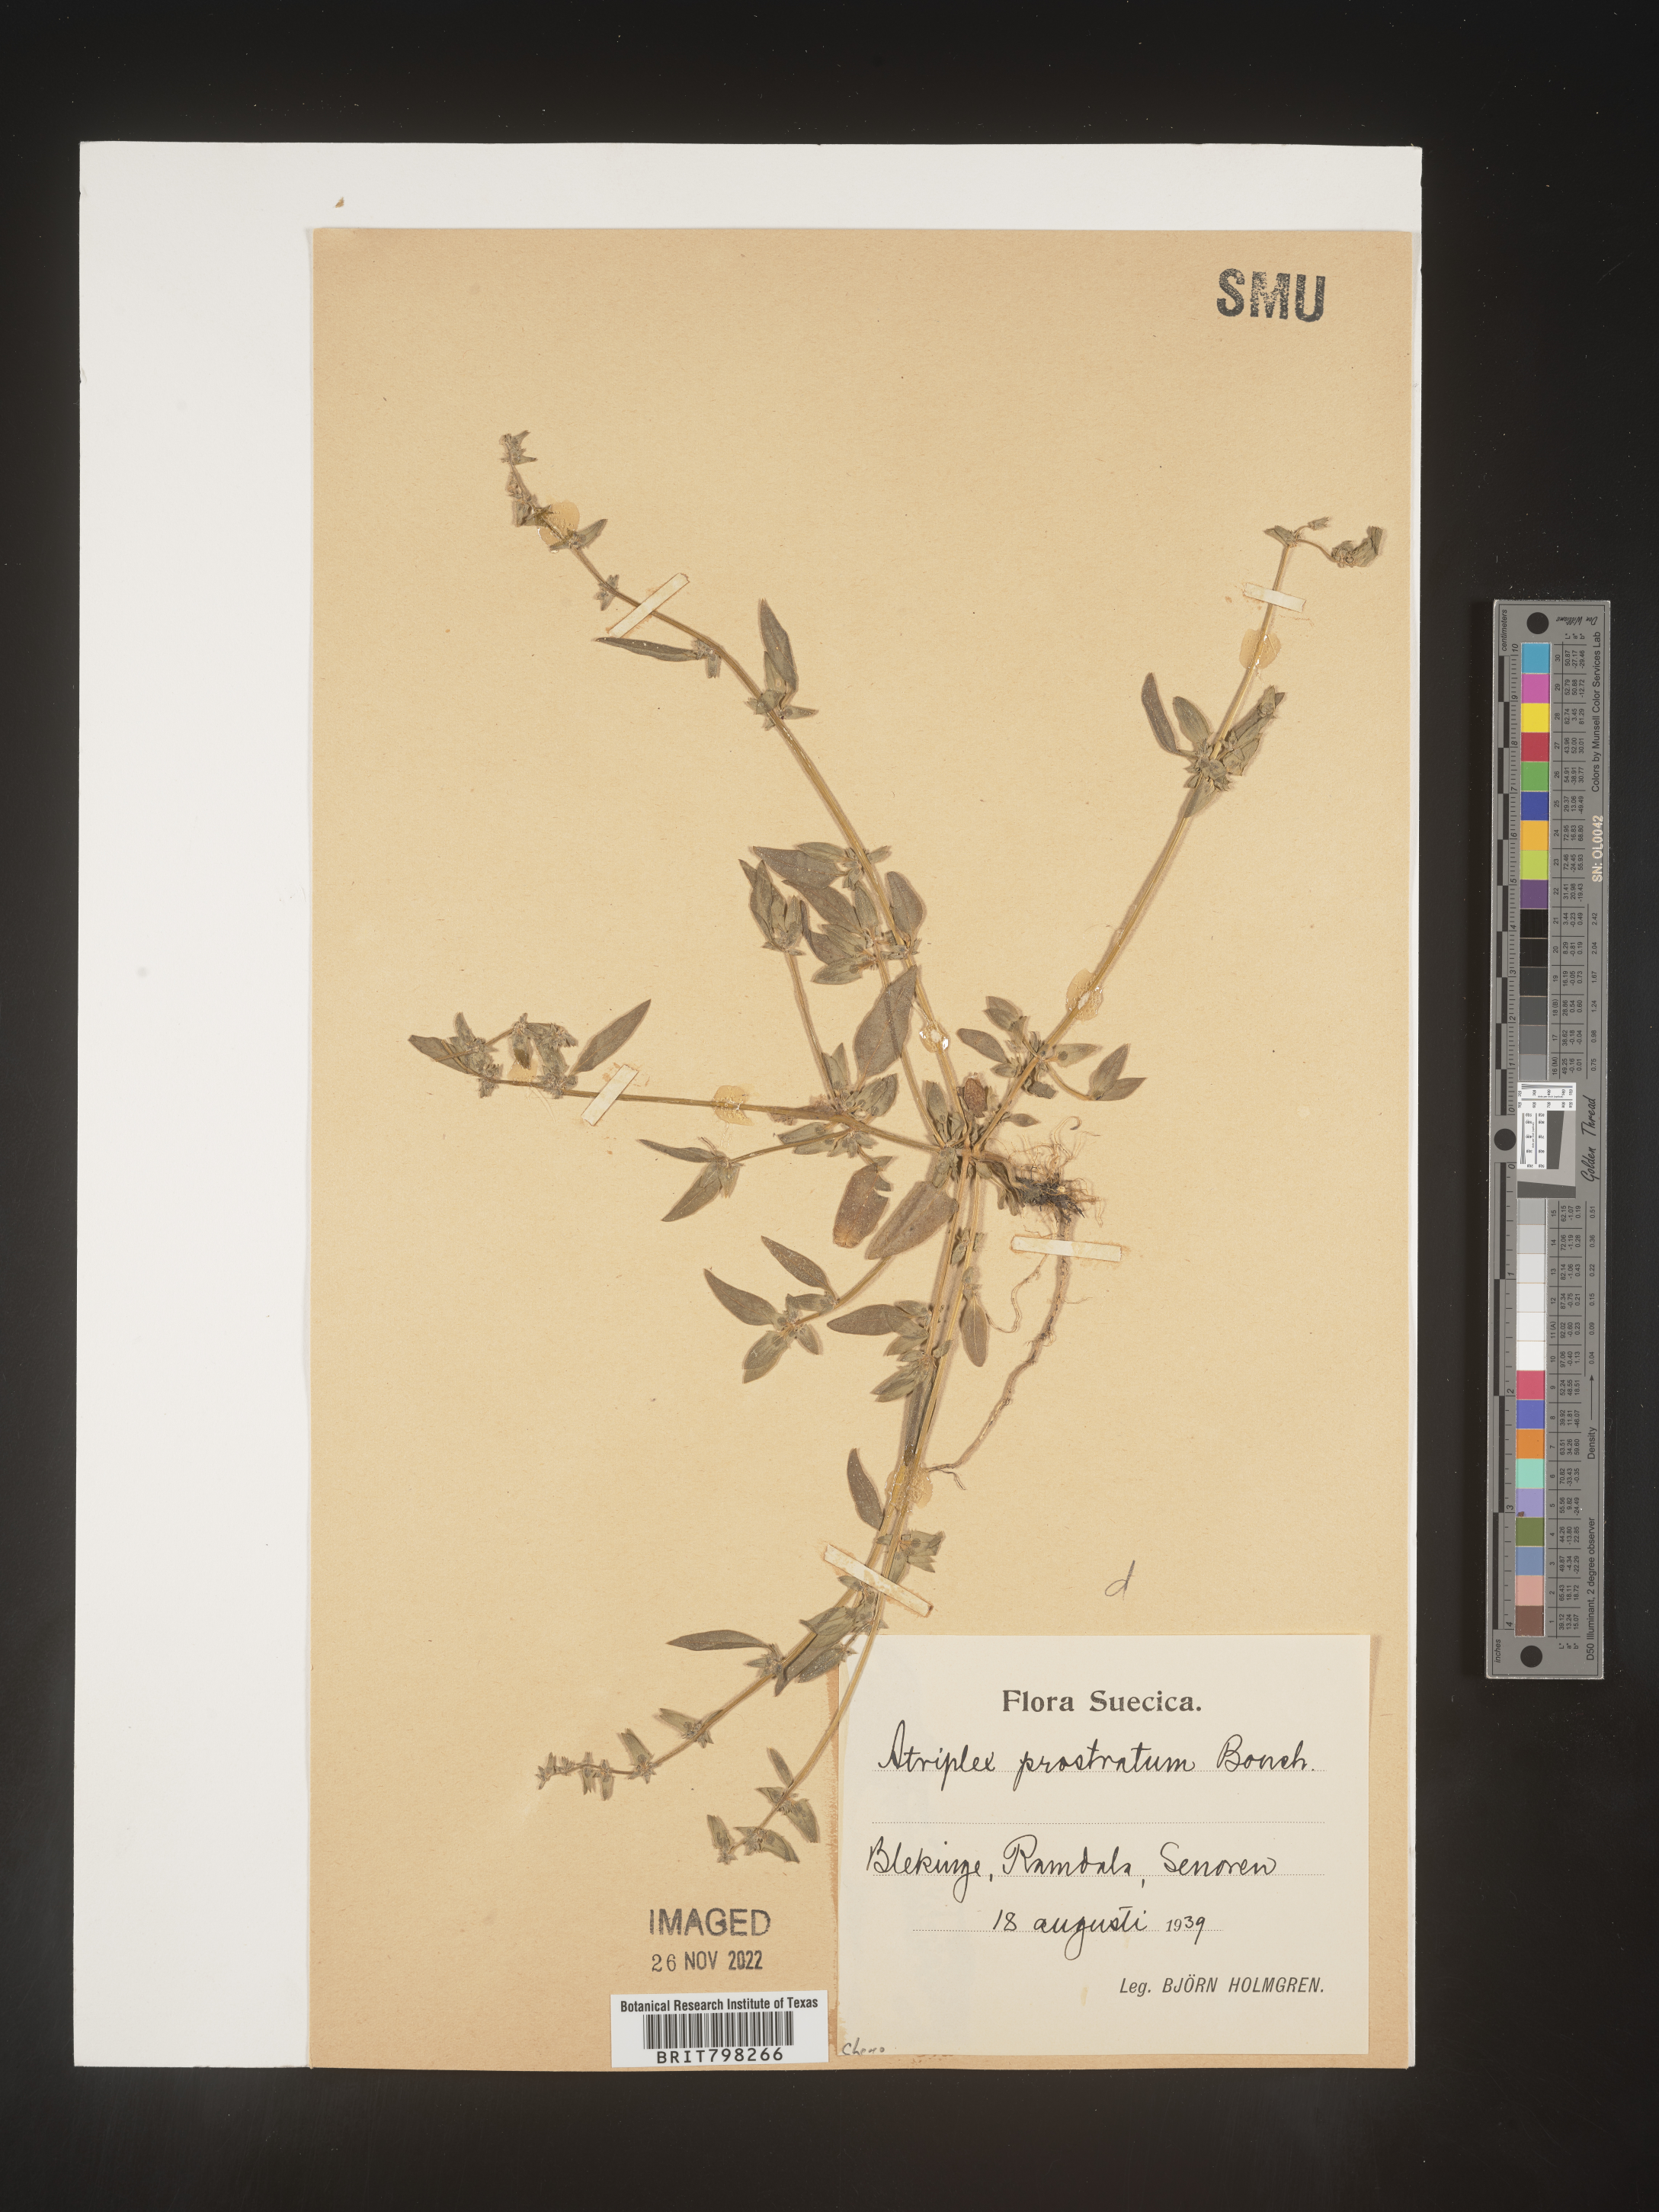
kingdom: Plantae
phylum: Tracheophyta
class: Magnoliopsida
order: Caryophyllales
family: Amaranthaceae
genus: Atriplex
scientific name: Atriplex
